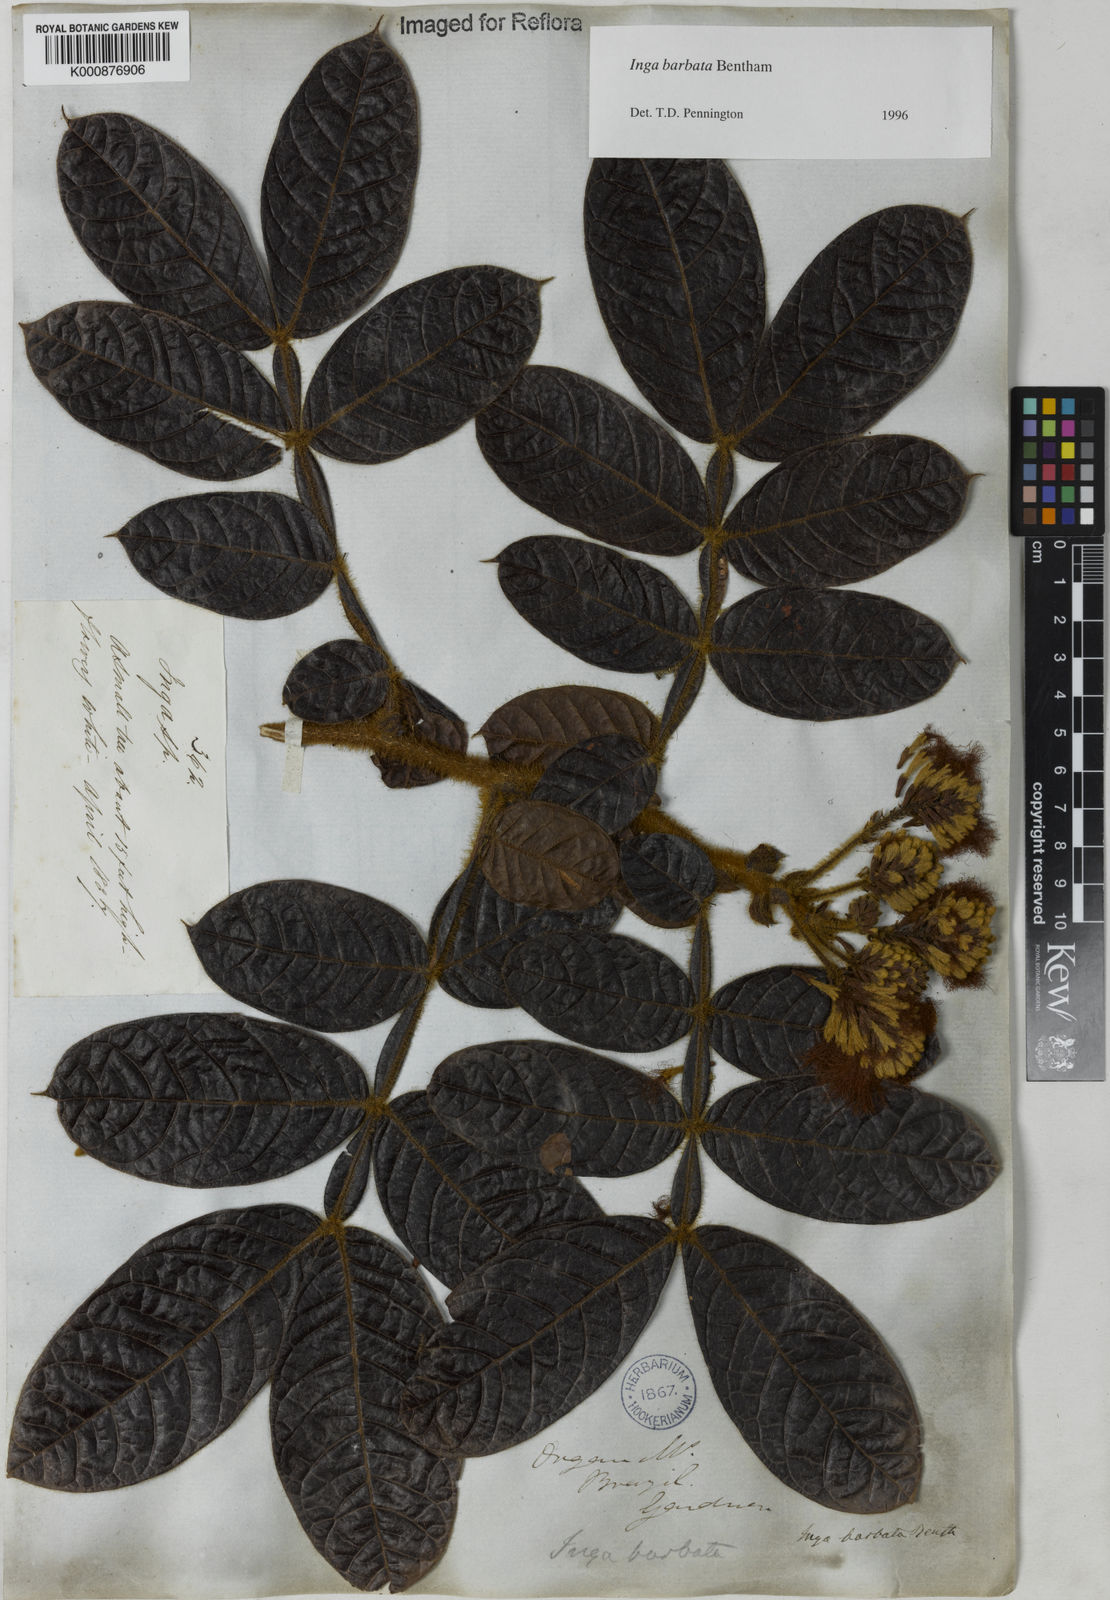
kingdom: Plantae
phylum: Tracheophyta
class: Magnoliopsida
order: Fabales
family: Fabaceae
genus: Inga
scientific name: Inga barbata
